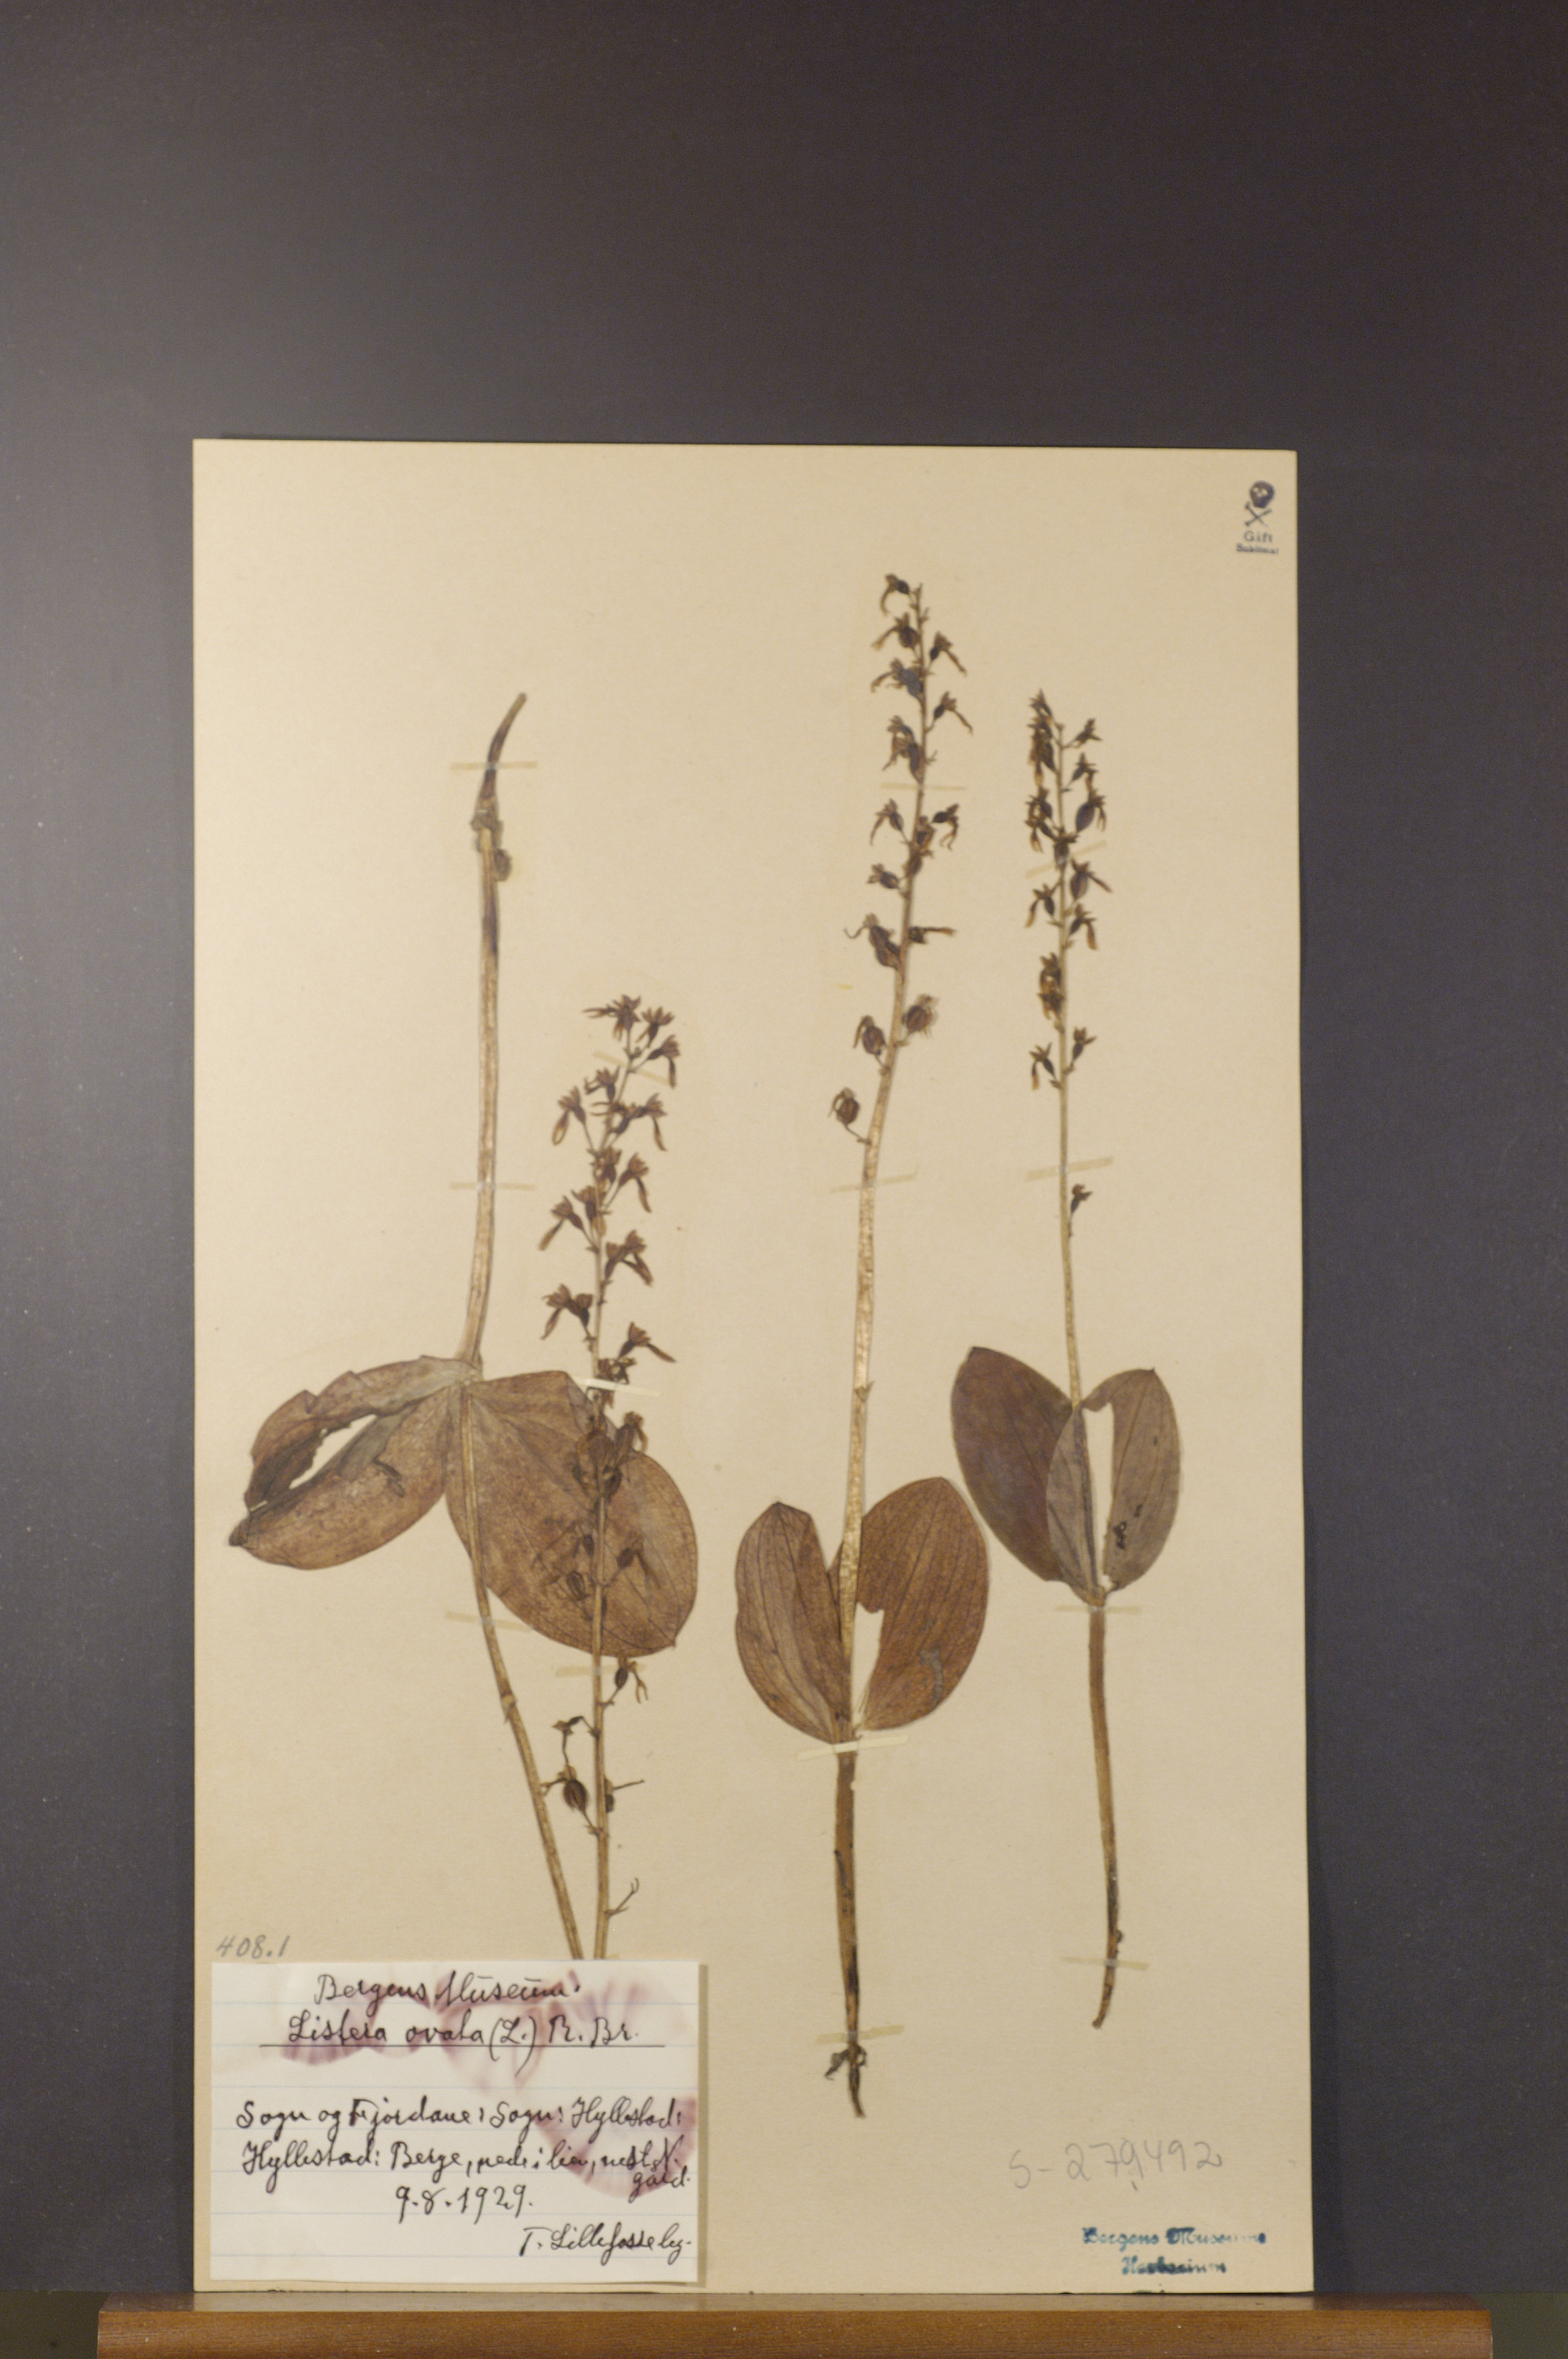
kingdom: Plantae
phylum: Tracheophyta
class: Liliopsida
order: Asparagales
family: Orchidaceae
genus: Neottia
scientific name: Neottia ovata
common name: Common twayblade
